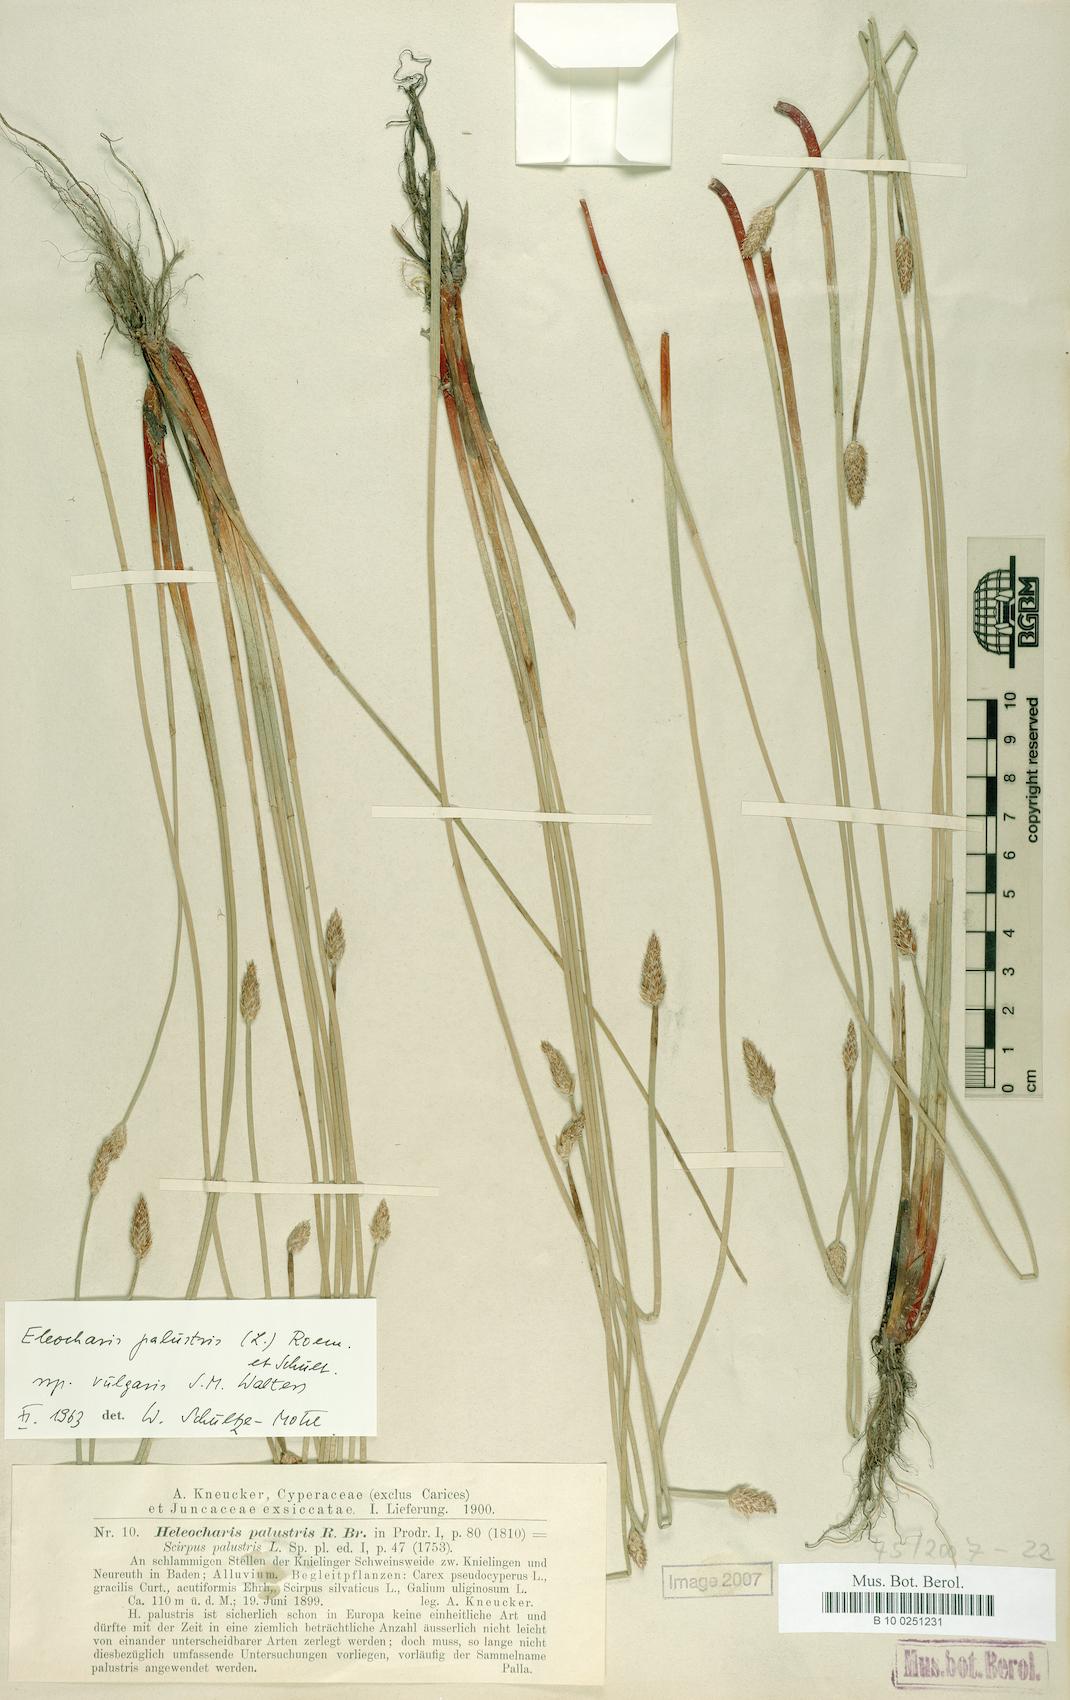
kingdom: Plantae
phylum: Tracheophyta
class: Liliopsida
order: Poales
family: Cyperaceae
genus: Eleocharis
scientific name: Eleocharis palustris
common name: Common spike-rush
